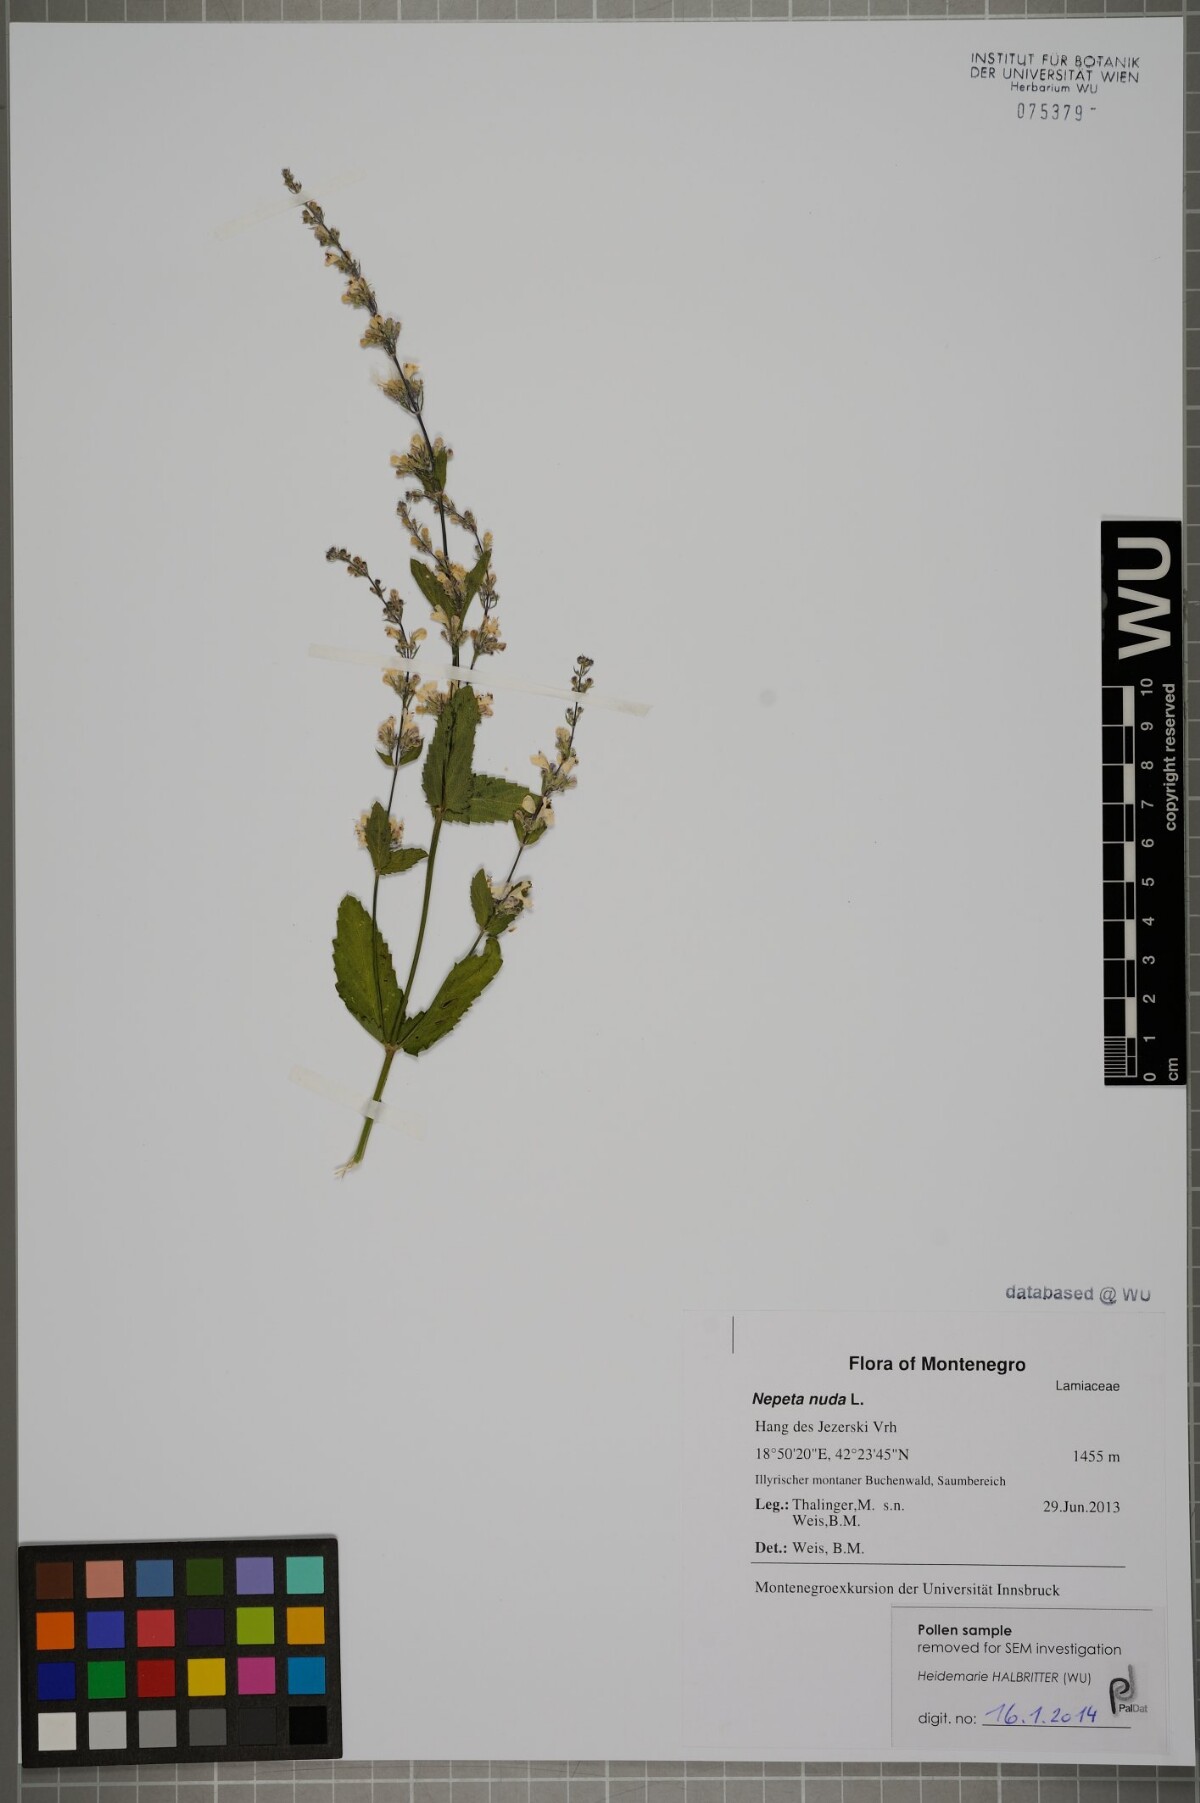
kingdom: Plantae
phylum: Tracheophyta
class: Magnoliopsida
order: Lamiales
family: Lamiaceae
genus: Nepeta
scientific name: Nepeta nuda
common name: Hairless catmint
